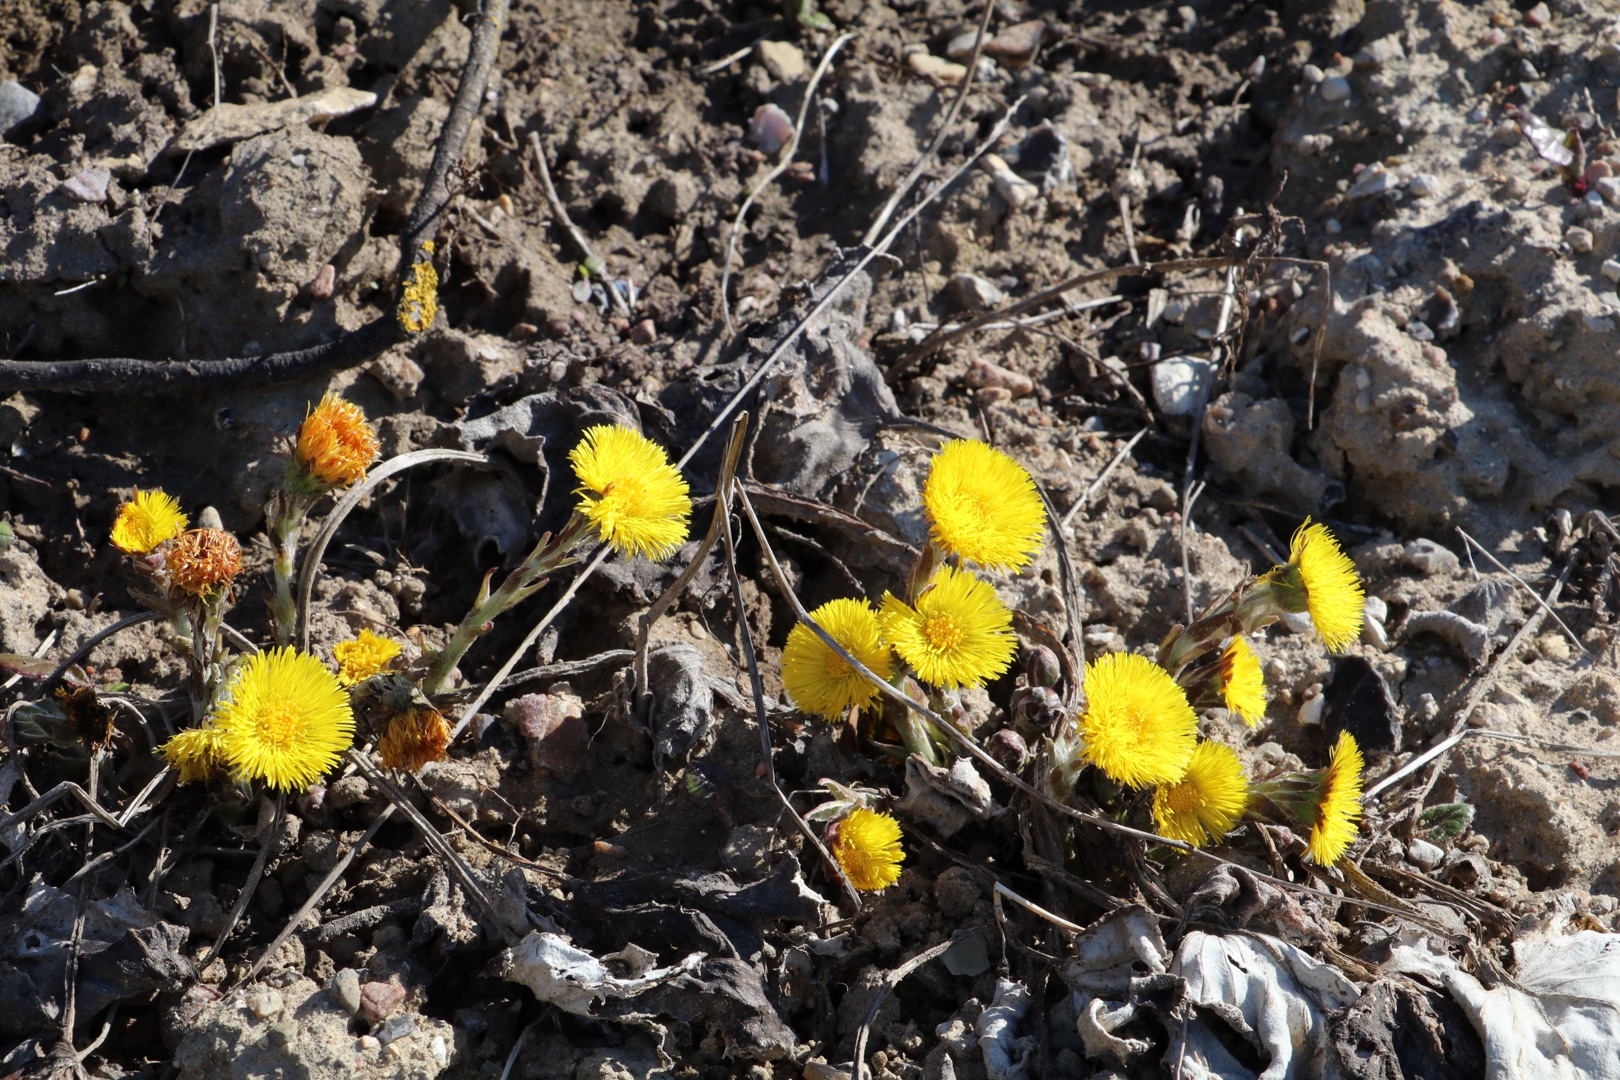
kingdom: Plantae
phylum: Tracheophyta
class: Magnoliopsida
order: Asterales
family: Asteraceae
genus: Tussilago
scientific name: Tussilago farfara
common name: Følfod
